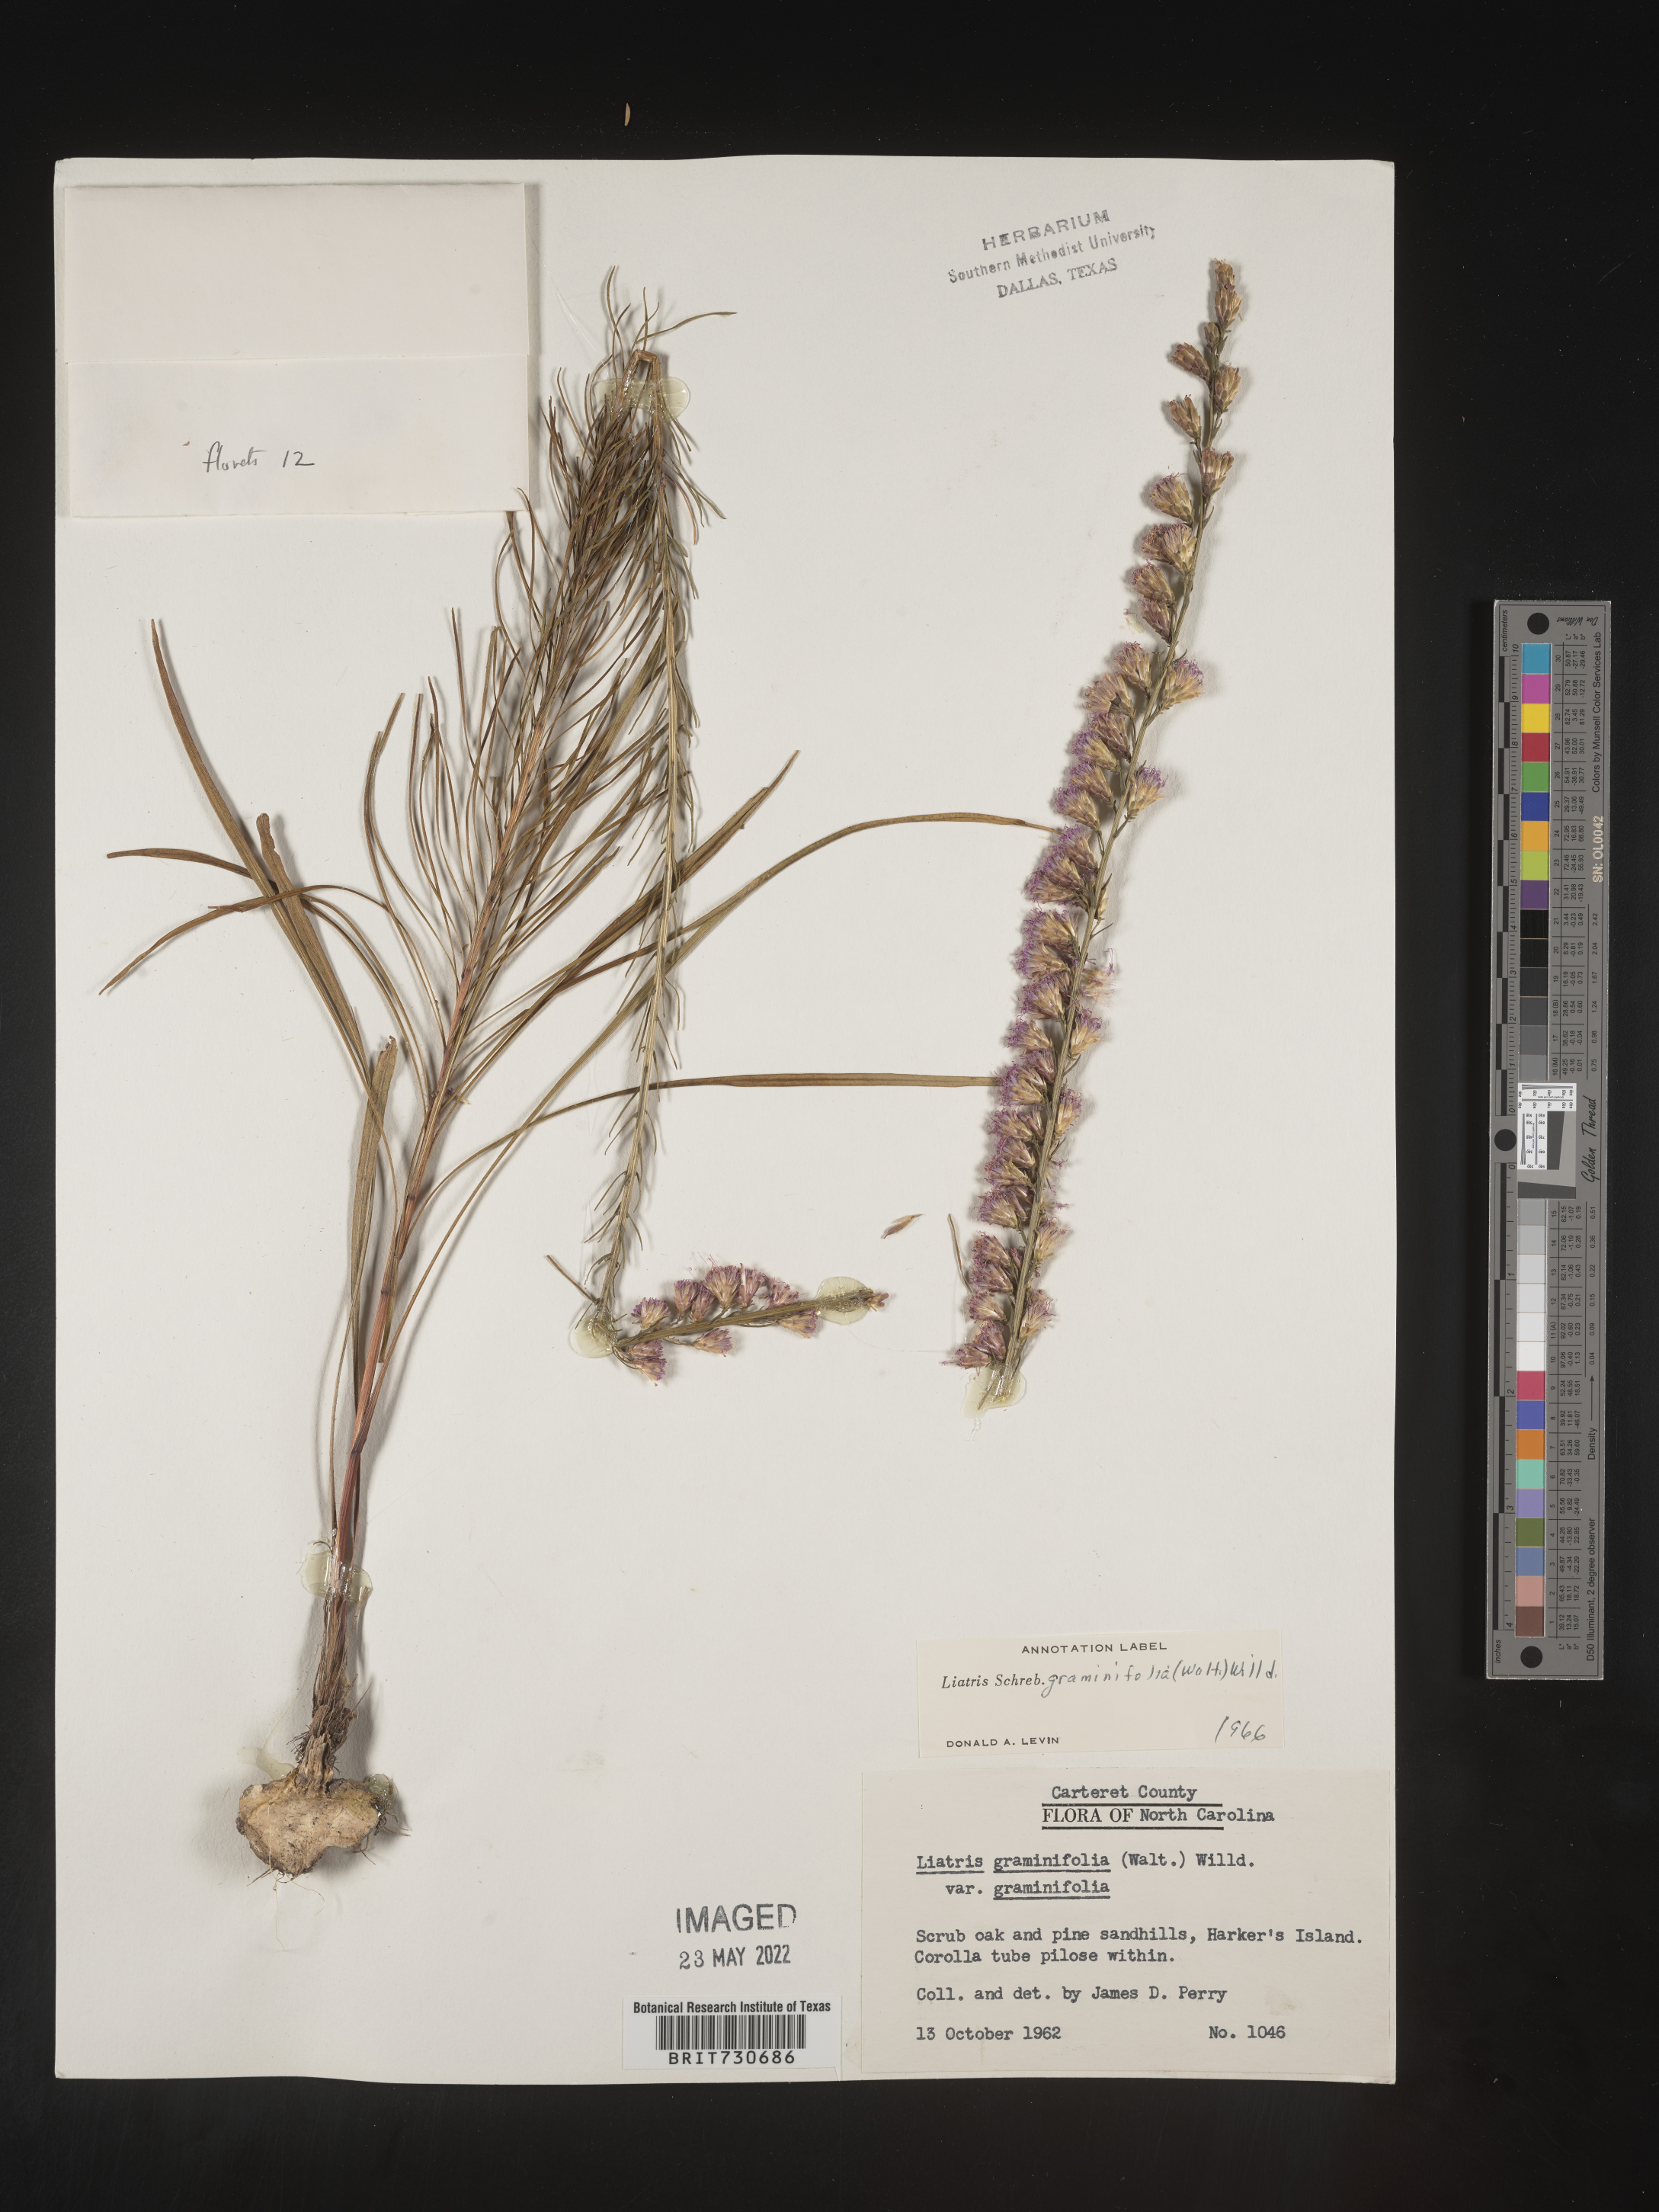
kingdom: Plantae
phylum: Tracheophyta
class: Magnoliopsida
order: Asterales
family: Asteraceae
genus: Liatris
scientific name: Liatris pilosa
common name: Grass-leaf gayfeather
